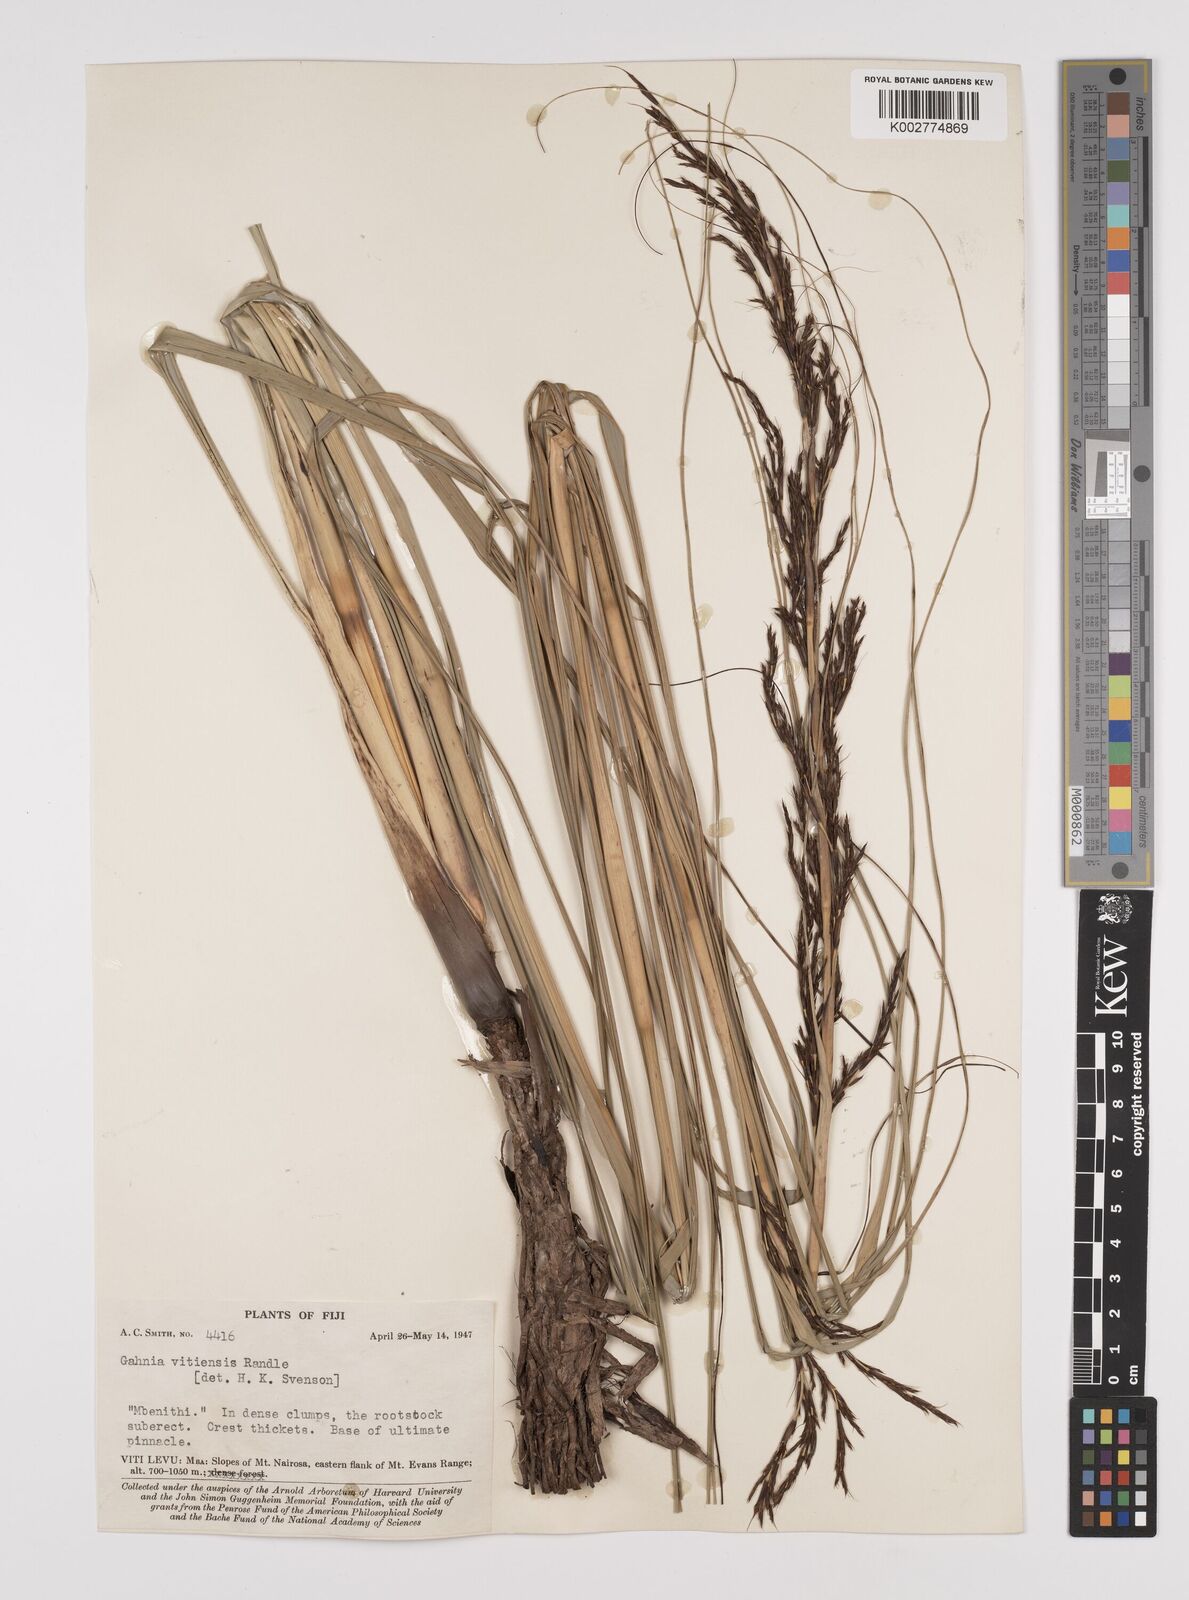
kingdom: Plantae
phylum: Tracheophyta
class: Liliopsida
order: Poales
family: Cyperaceae
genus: Gahnia
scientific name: Gahnia vitiensis
